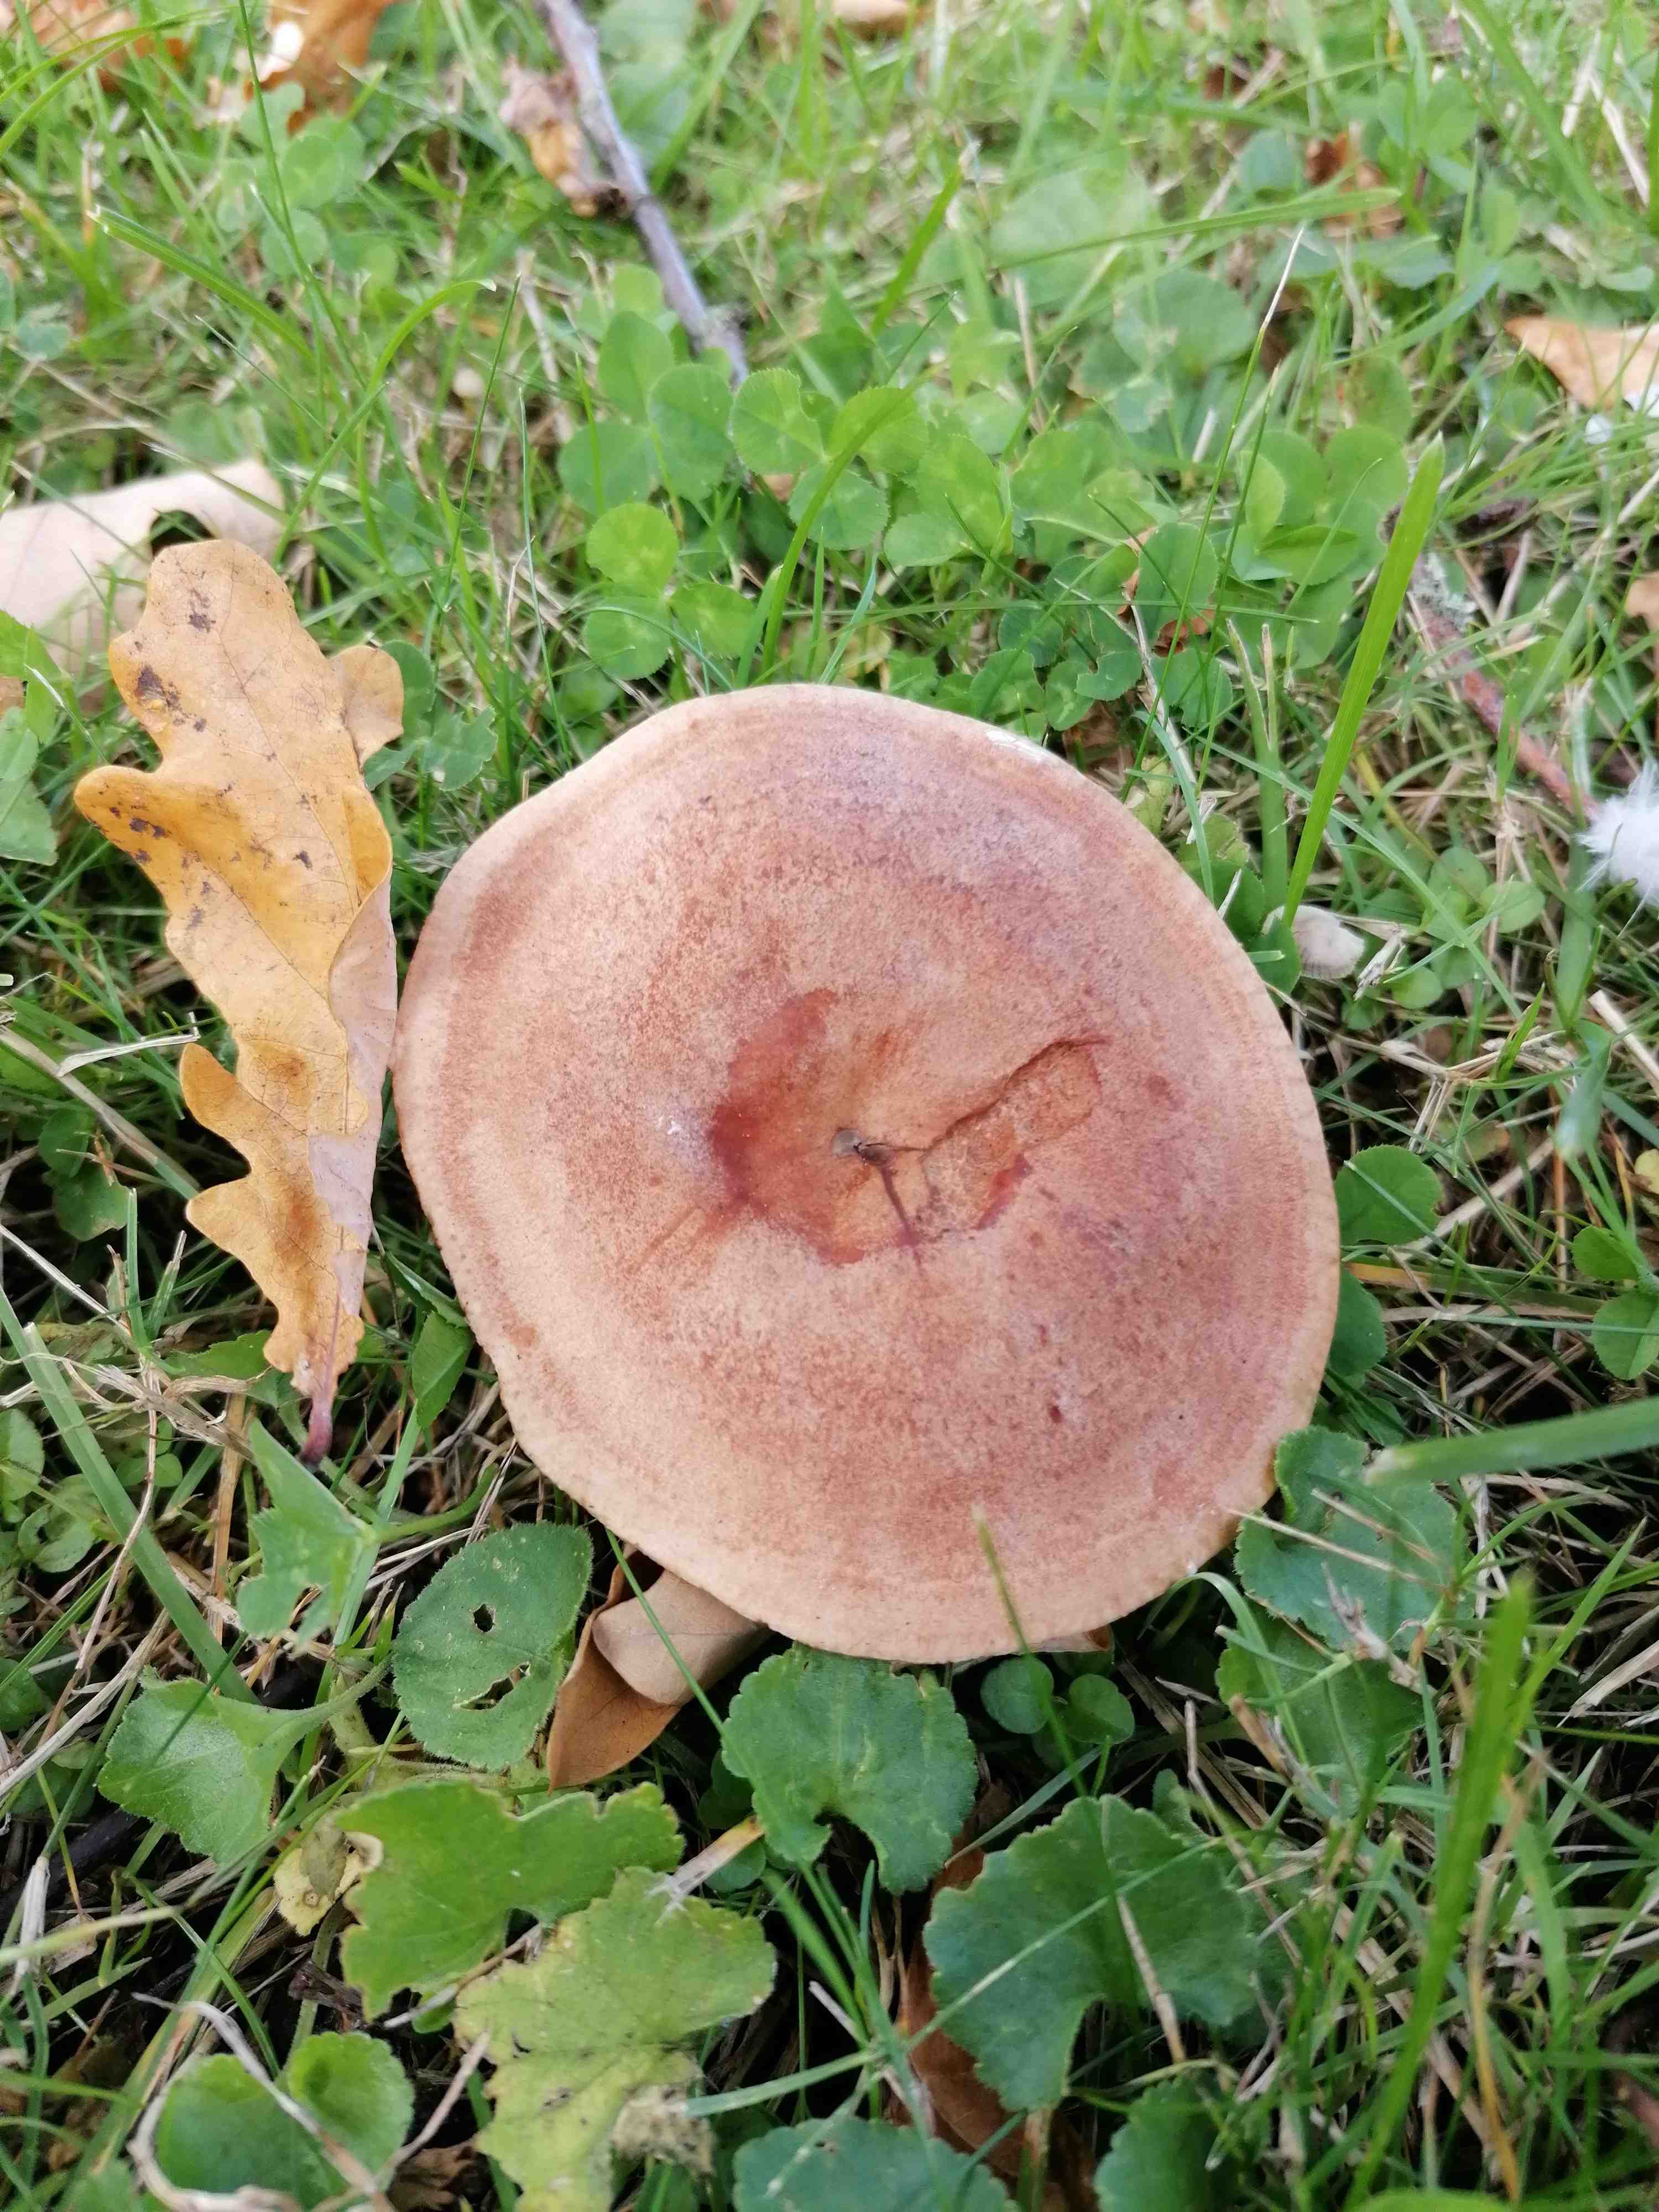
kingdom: Fungi
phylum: Basidiomycota
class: Agaricomycetes
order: Russulales
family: Russulaceae
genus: Lactarius
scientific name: Lactarius quietus
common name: ege-mælkehat
